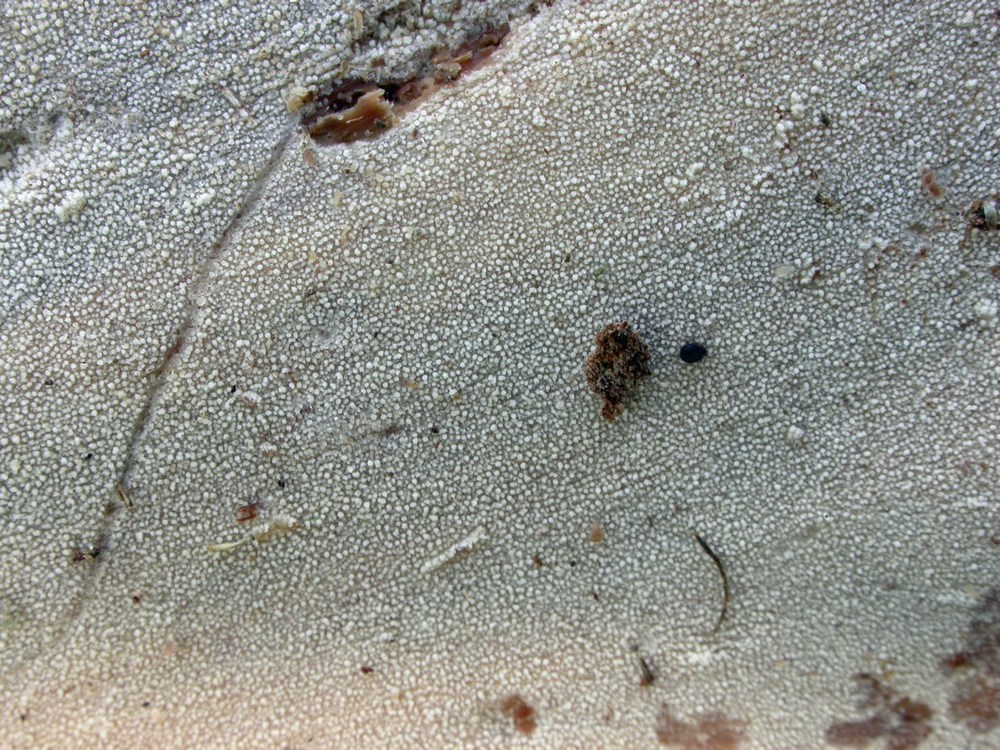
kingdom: Fungi
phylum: Basidiomycota
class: Agaricomycetes
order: Hymenochaetales
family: Rickenellaceae
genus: Resinicium
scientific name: Resinicium bicolor
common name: almindelig vokstand
